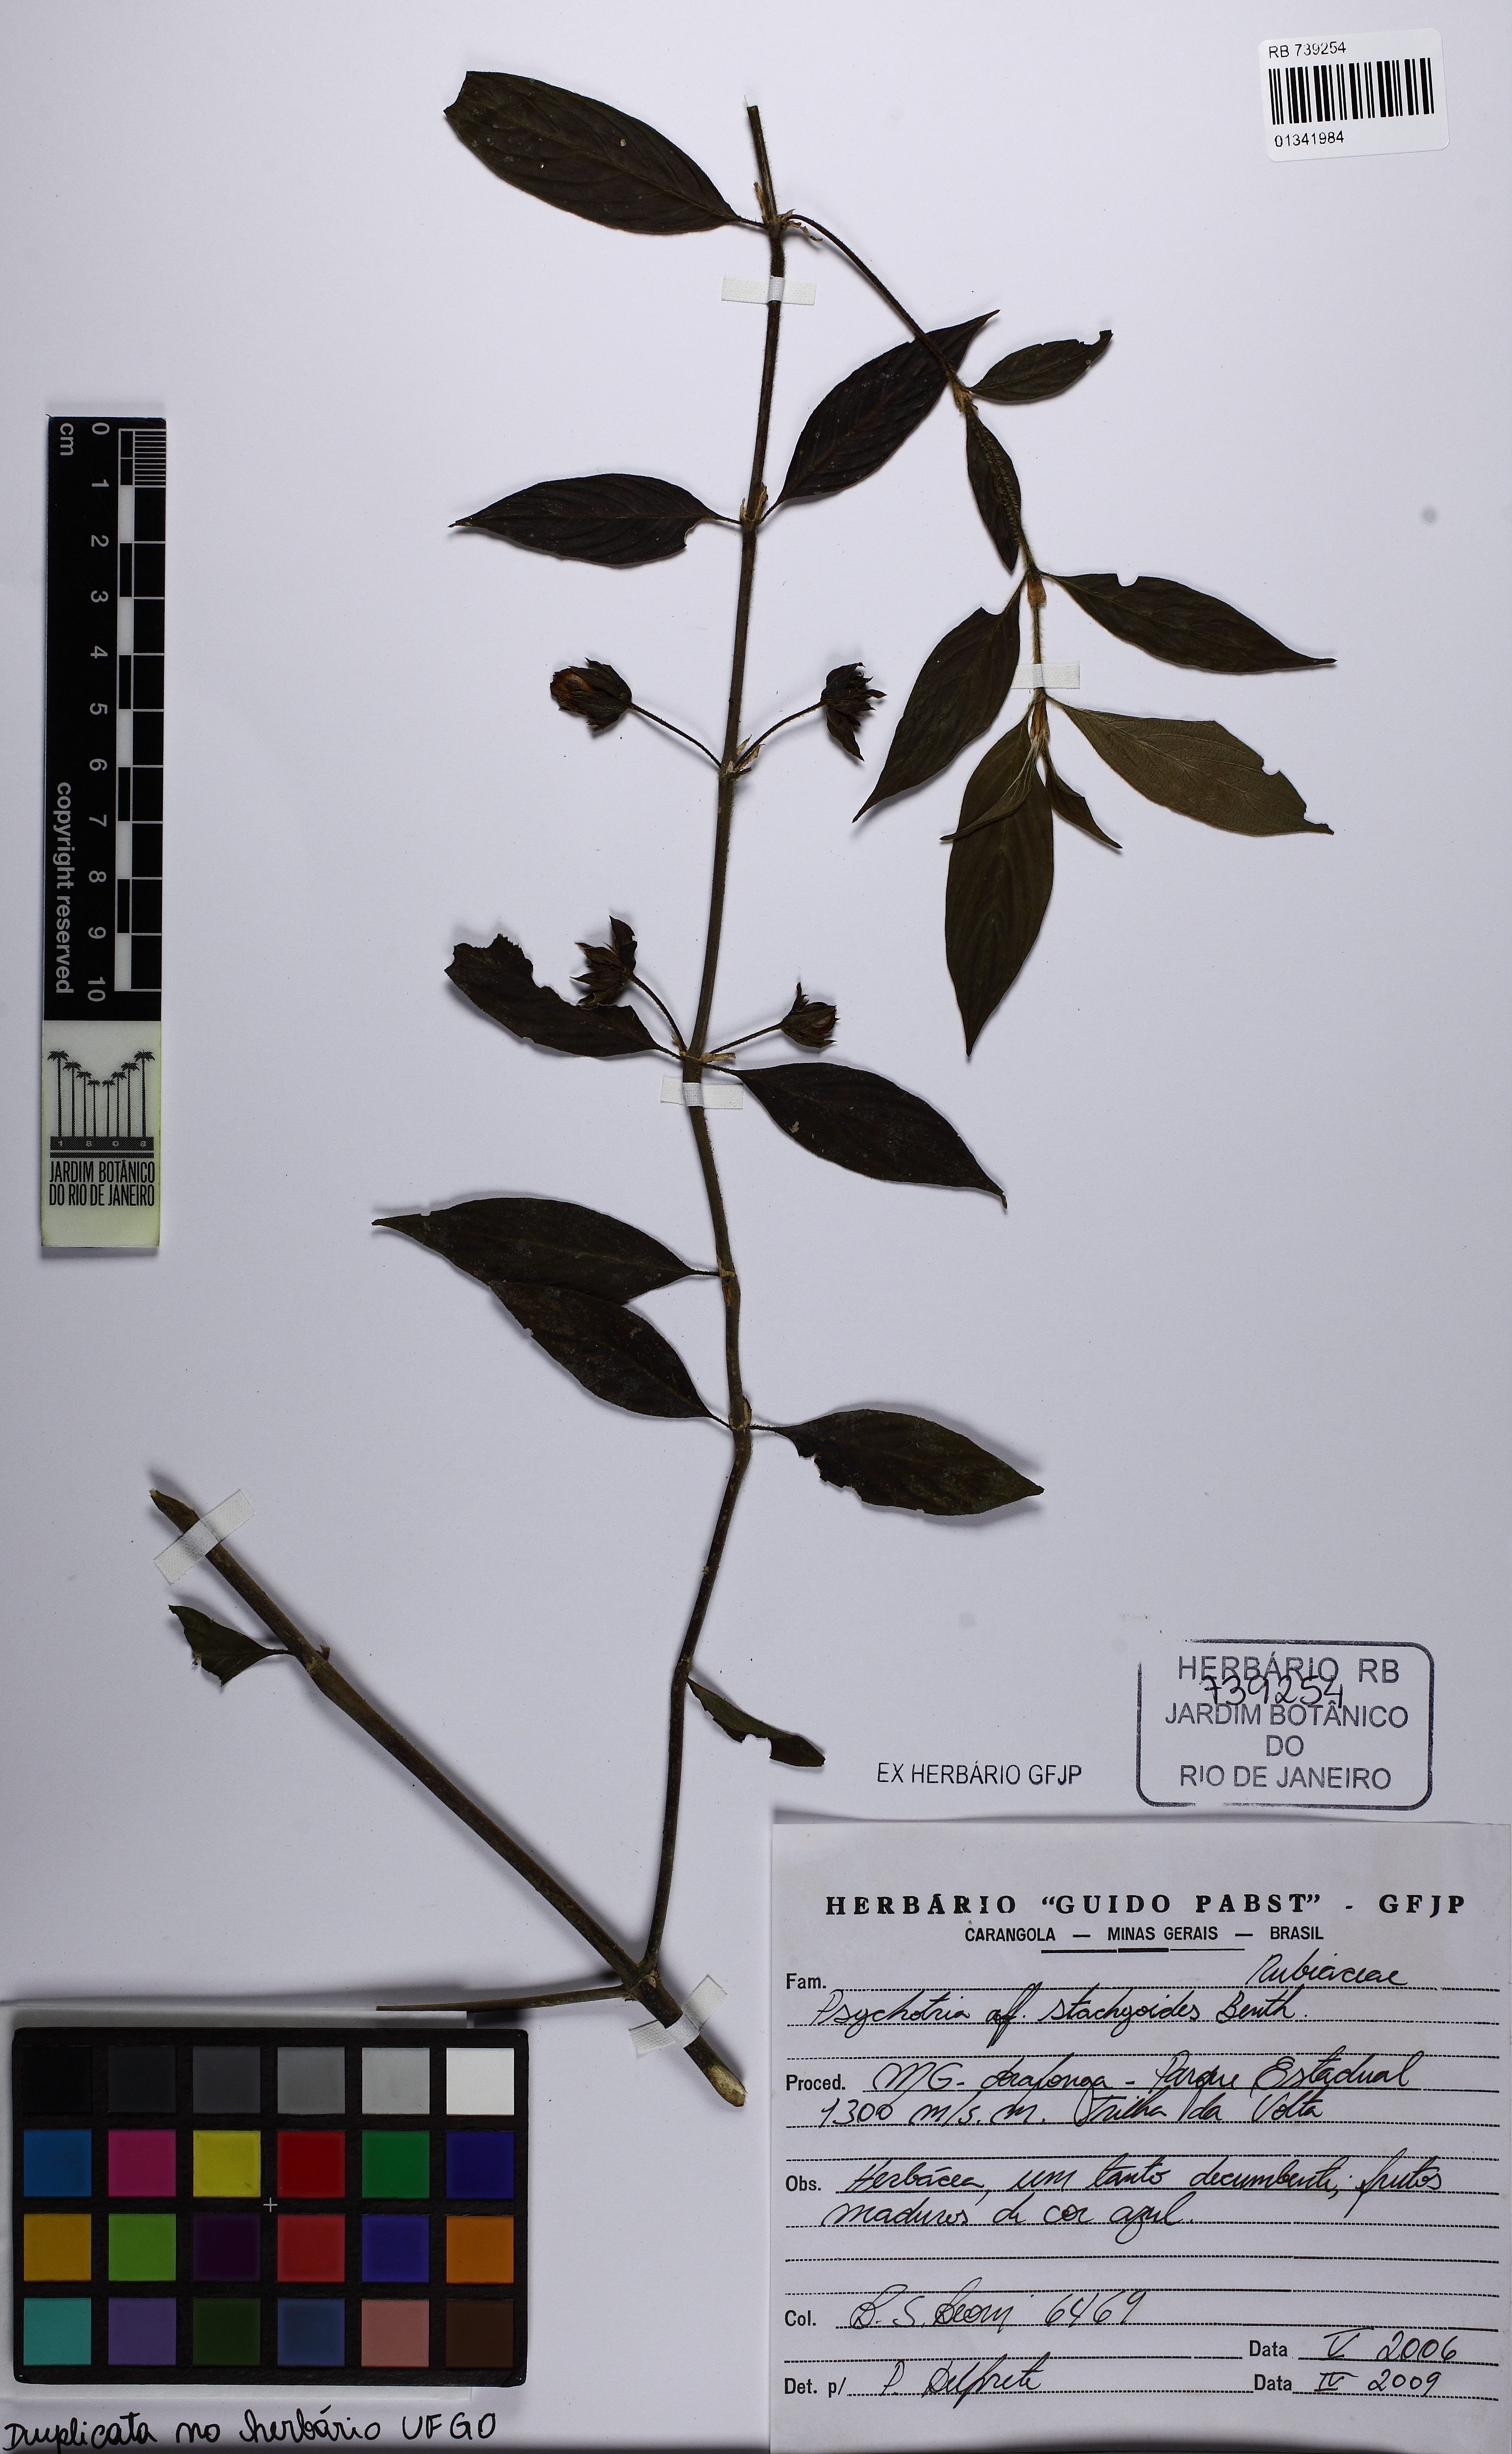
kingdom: Plantae
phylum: Tracheophyta
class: Magnoliopsida
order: Gentianales
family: Rubiaceae
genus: Psychotria
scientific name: Psychotria stachyoides
